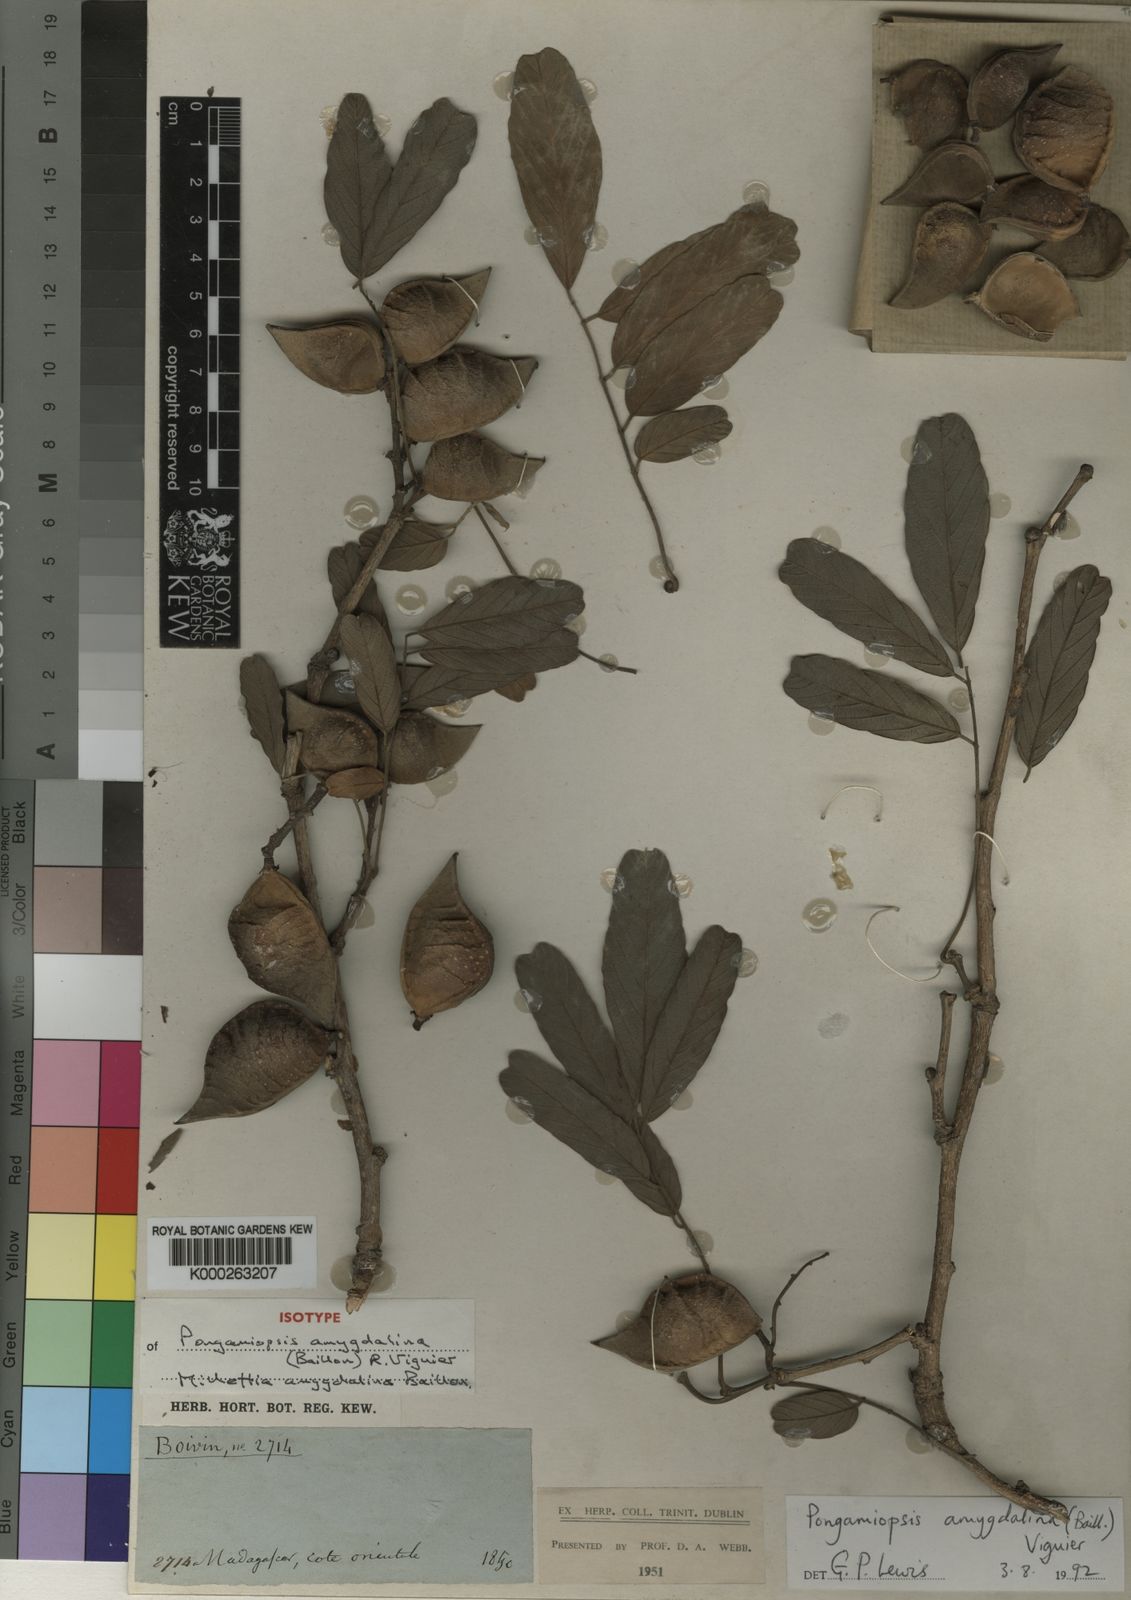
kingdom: Plantae
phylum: Tracheophyta
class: Magnoliopsida
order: Fabales
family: Fabaceae
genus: Pongamiopsis
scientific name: Pongamiopsis amygdalina
